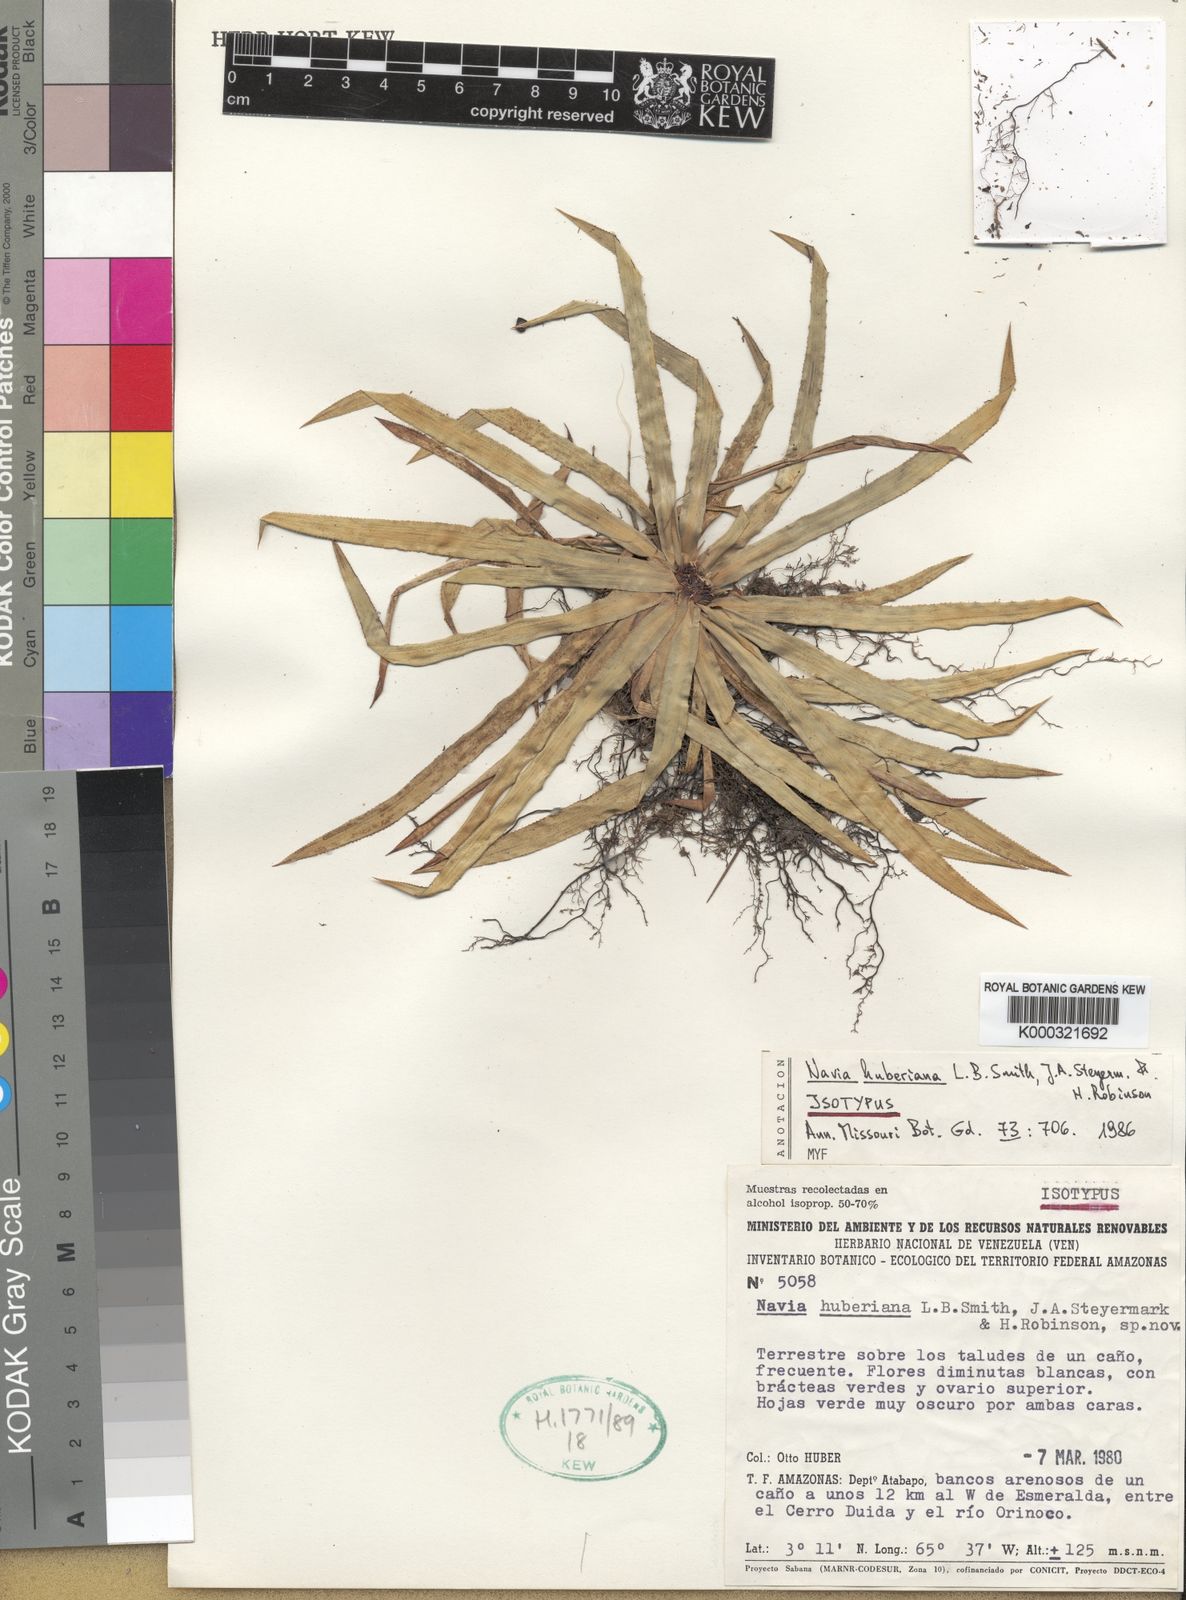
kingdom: Plantae
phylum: Tracheophyta
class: Liliopsida
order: Poales
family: Bromeliaceae
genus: Navia
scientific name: Navia huberiana
